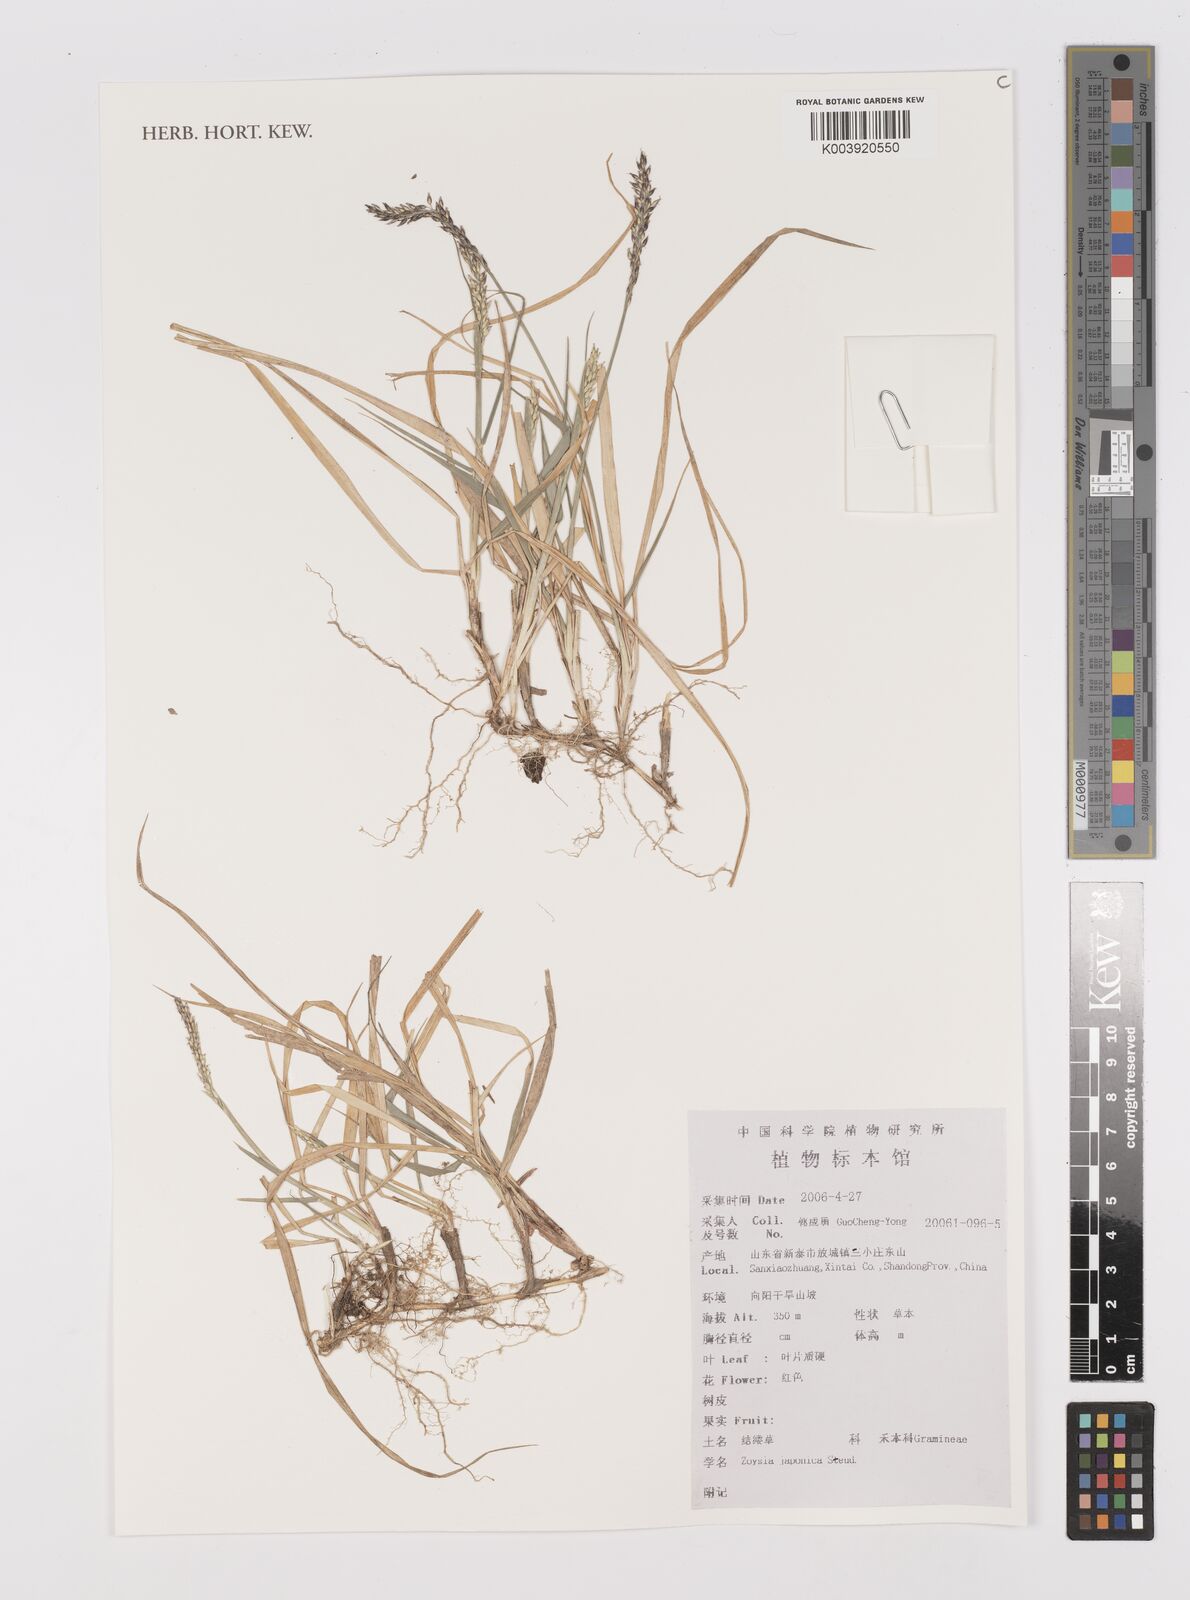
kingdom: Plantae
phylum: Tracheophyta
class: Liliopsida
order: Poales
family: Poaceae
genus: Zoysia
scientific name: Zoysia japonica
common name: Korean lawngrass
